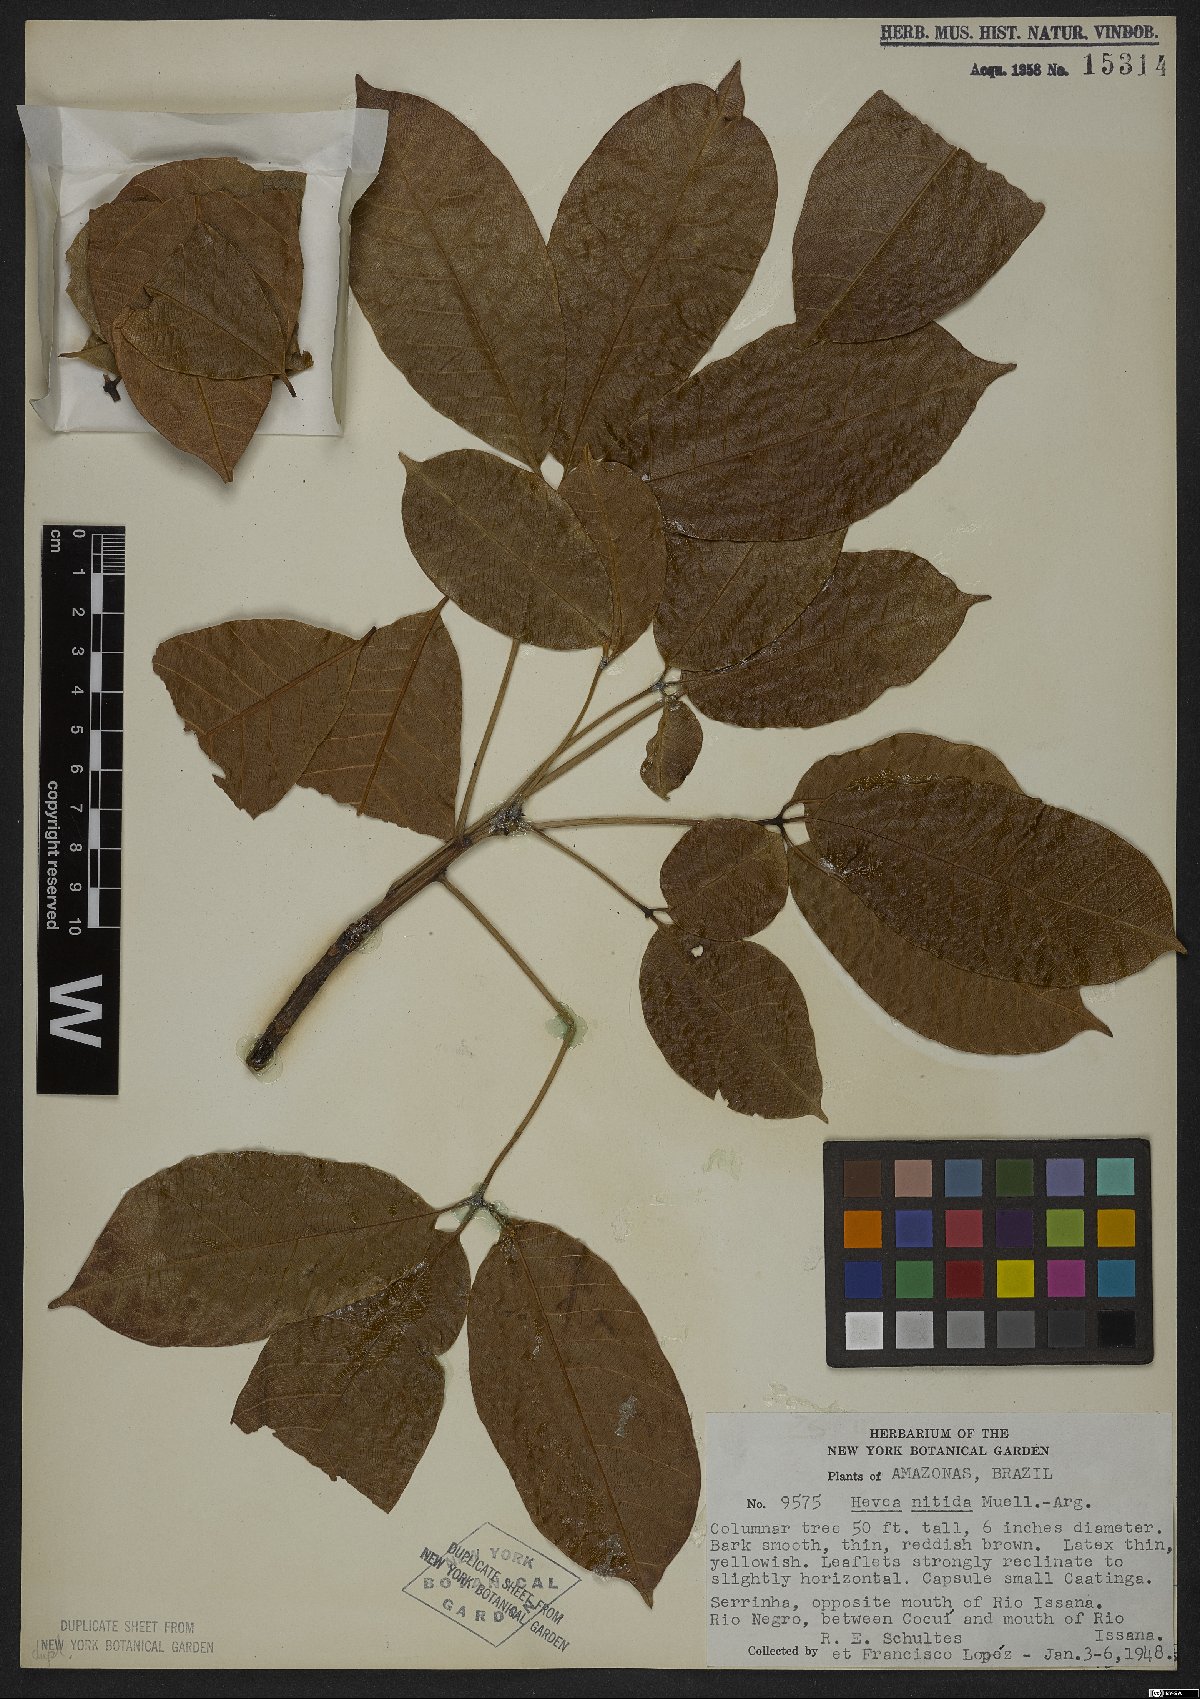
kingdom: Plantae
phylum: Tracheophyta
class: Magnoliopsida
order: Malpighiales
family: Euphorbiaceae
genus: Hevea
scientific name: Hevea nitida
